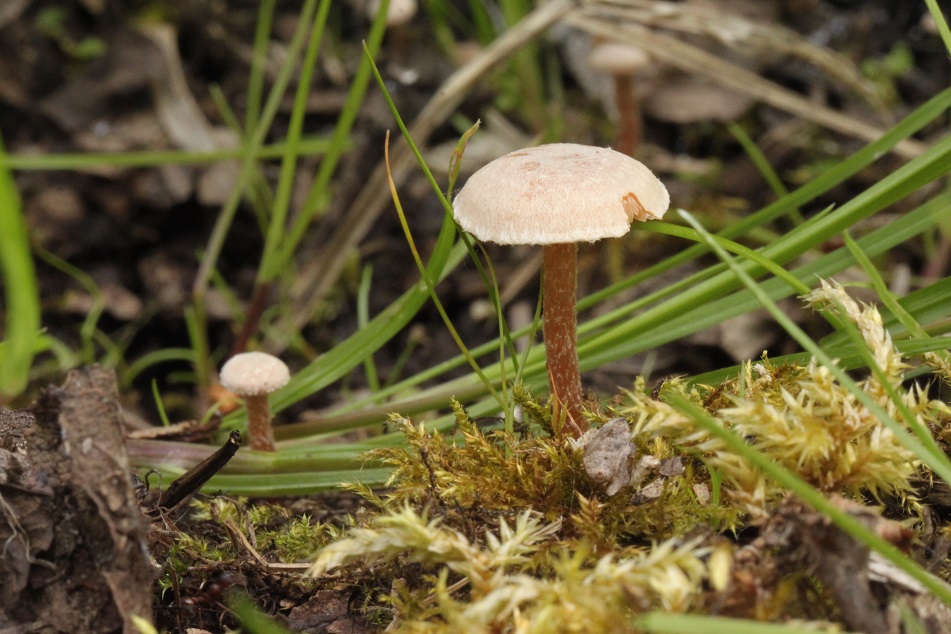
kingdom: Fungi
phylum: Basidiomycota
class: Agaricomycetes
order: Agaricales
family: Tubariaceae
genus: Tubaria
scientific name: Tubaria conspersa
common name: bleg fnughat
